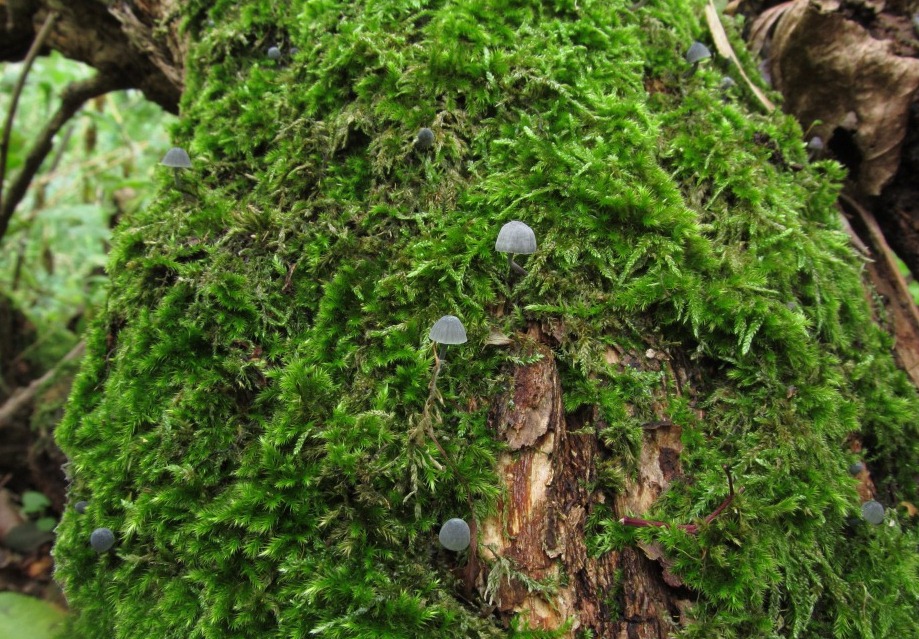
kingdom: Fungi
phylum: Basidiomycota
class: Agaricomycetes
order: Agaricales
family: Mycenaceae
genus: Mycena
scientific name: Mycena pseudocorticola
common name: gråblå bark-huesvamp
